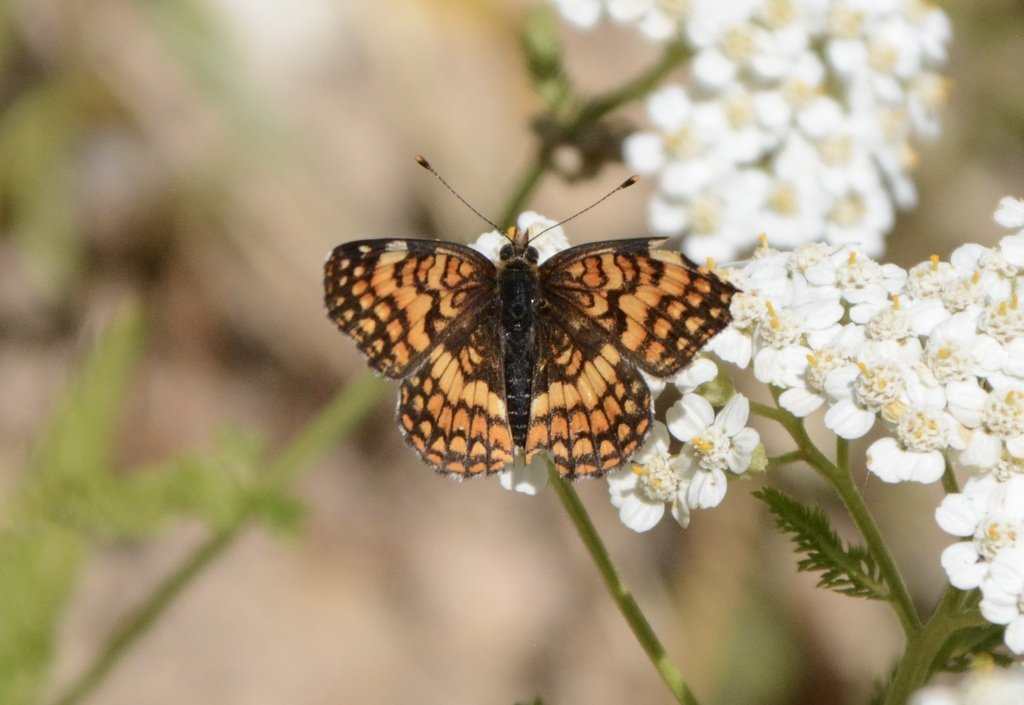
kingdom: Animalia
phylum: Arthropoda
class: Insecta
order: Lepidoptera
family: Nymphalidae
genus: Chlosyne
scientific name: Chlosyne palla
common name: Northern Checkerspot
